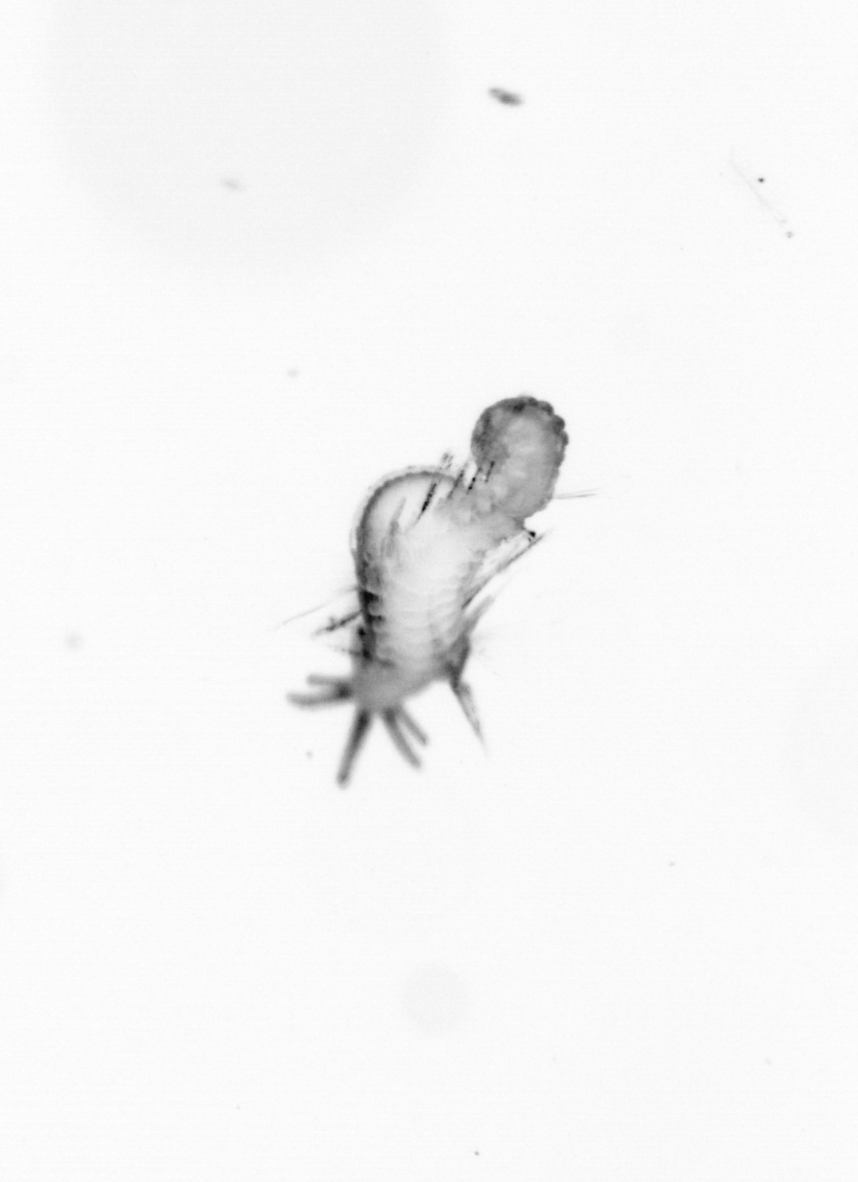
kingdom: Animalia
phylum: Annelida
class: Polychaeta
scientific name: Polychaeta
